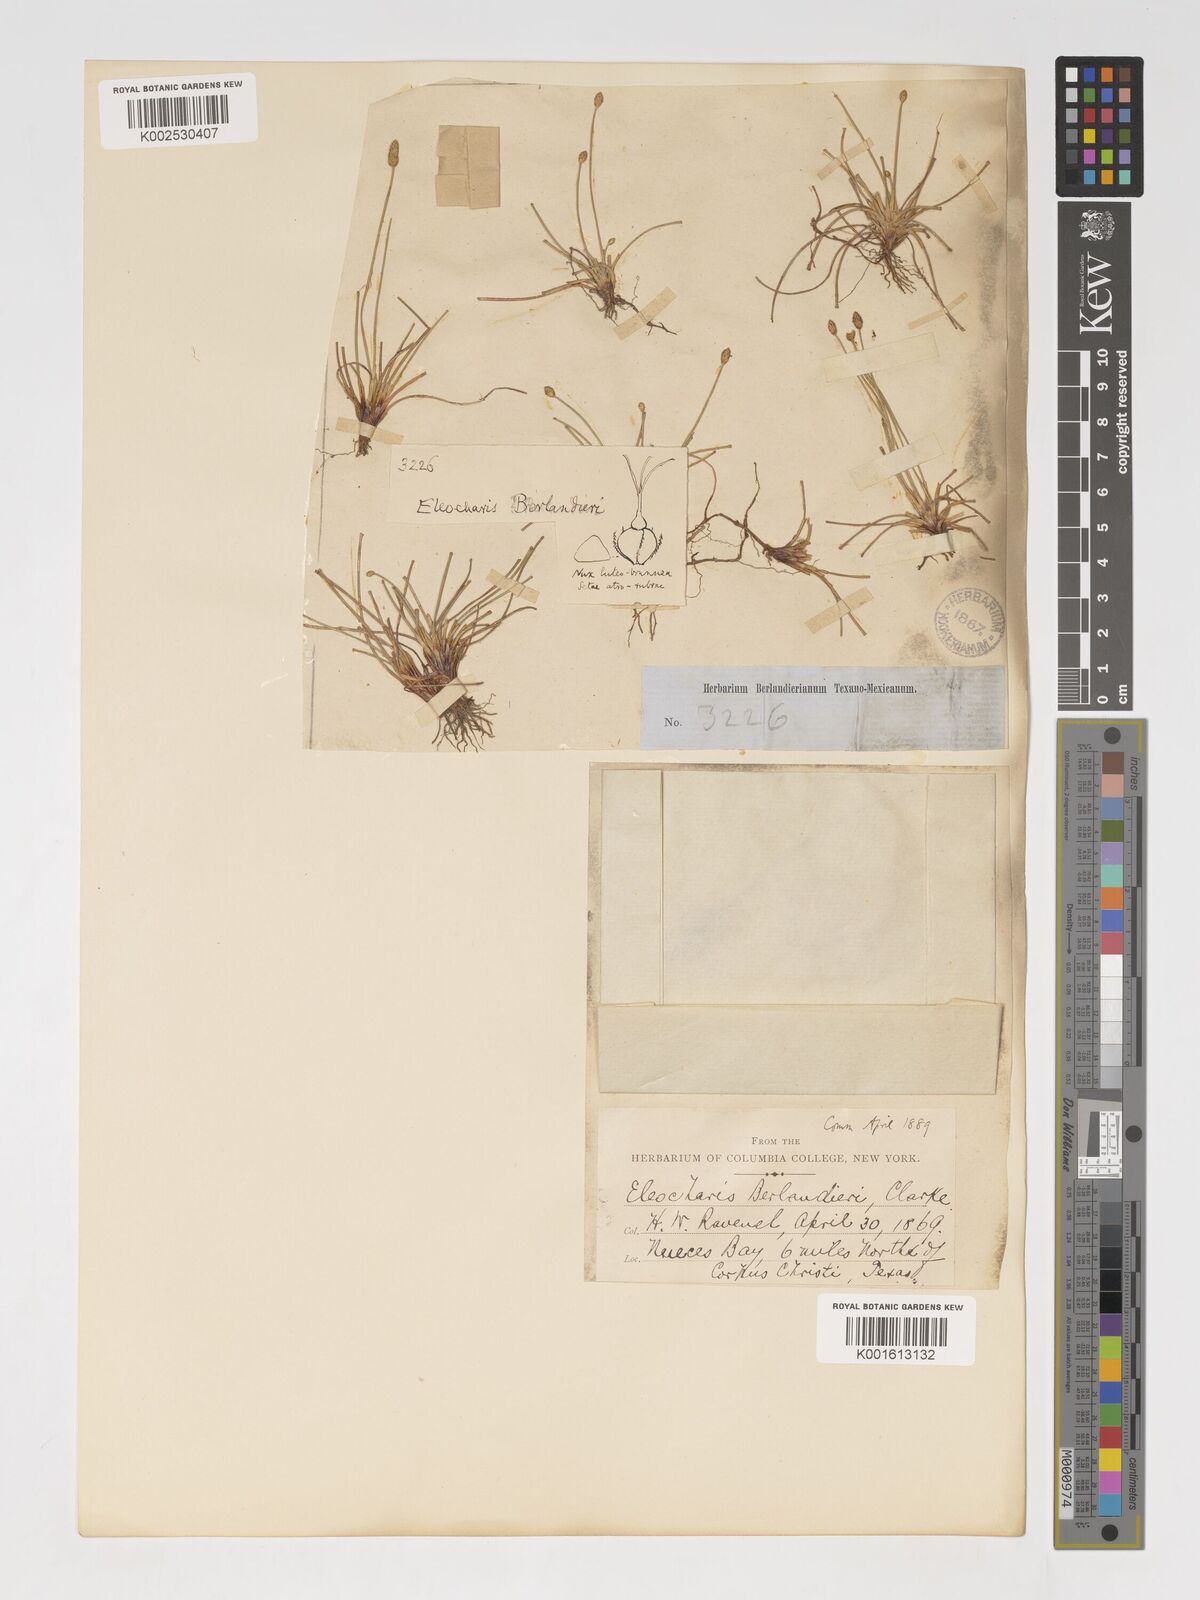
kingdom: Plantae
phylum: Tracheophyta
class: Liliopsida
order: Poales
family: Cyperaceae
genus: Eleocharis
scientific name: Eleocharis albida
